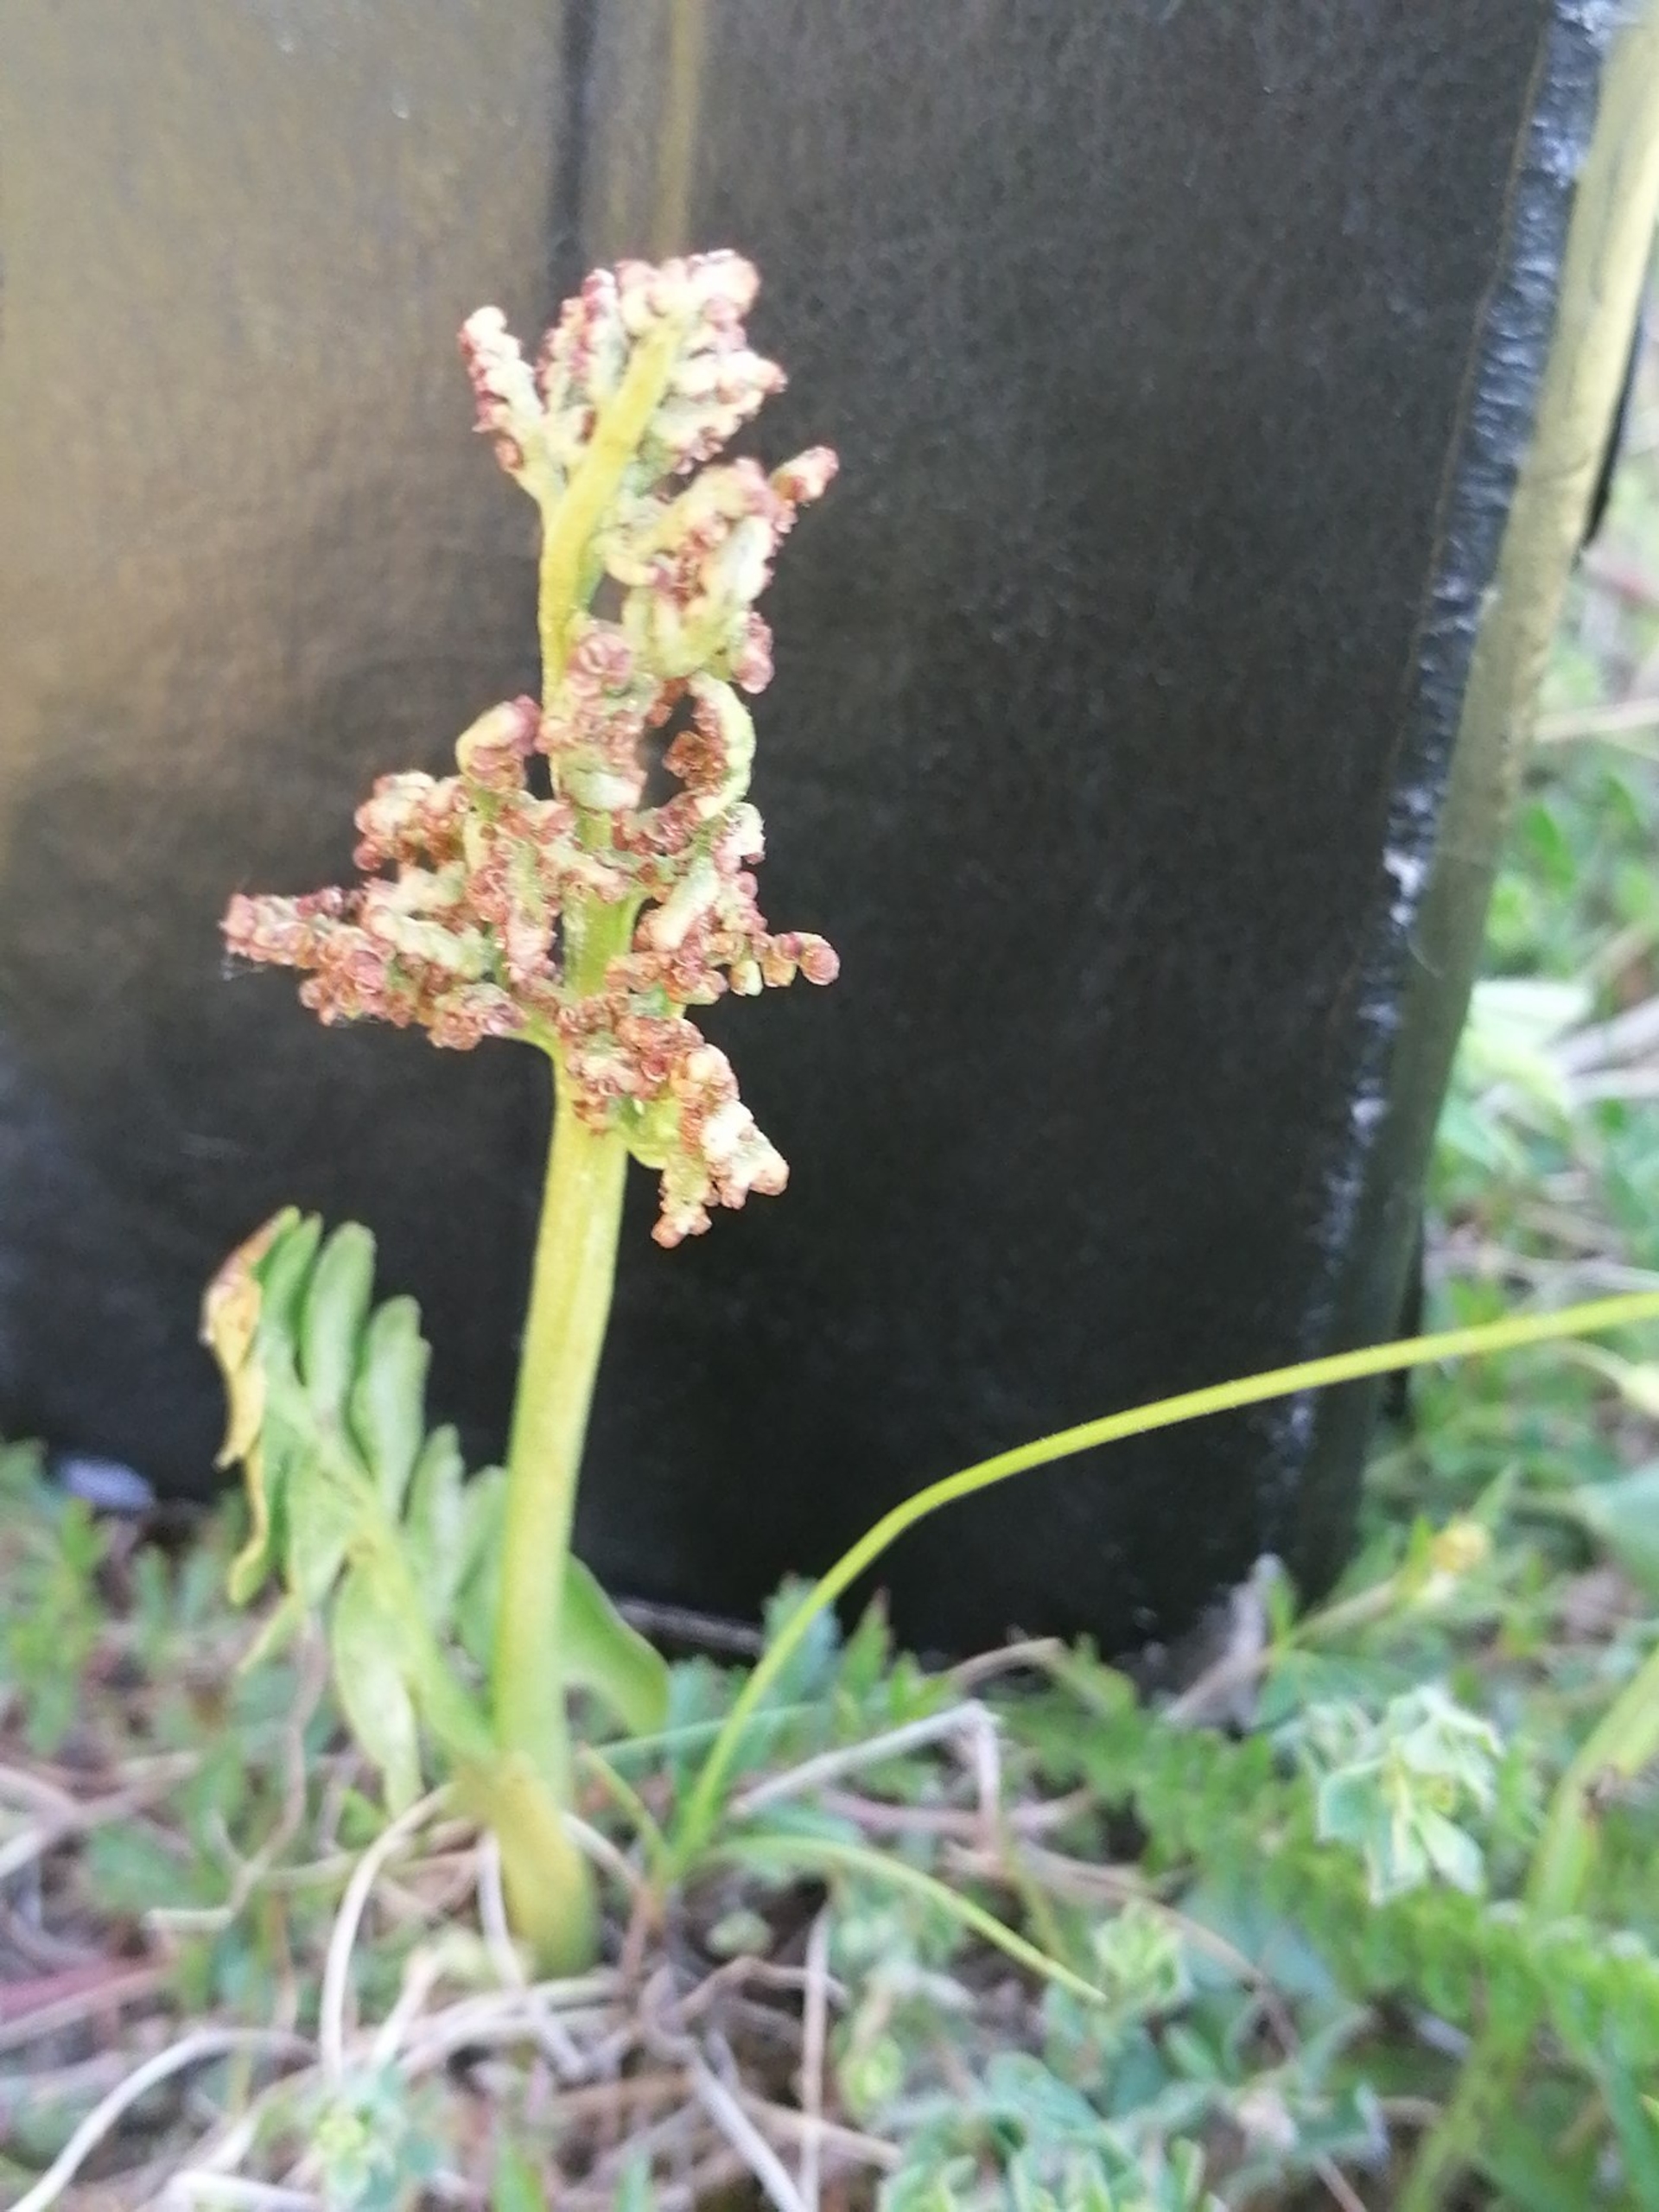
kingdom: Plantae
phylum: Tracheophyta
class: Polypodiopsida
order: Ophioglossales
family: Ophioglossaceae
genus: Botrychium
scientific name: Botrychium lunaria
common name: Almindelig månerude
